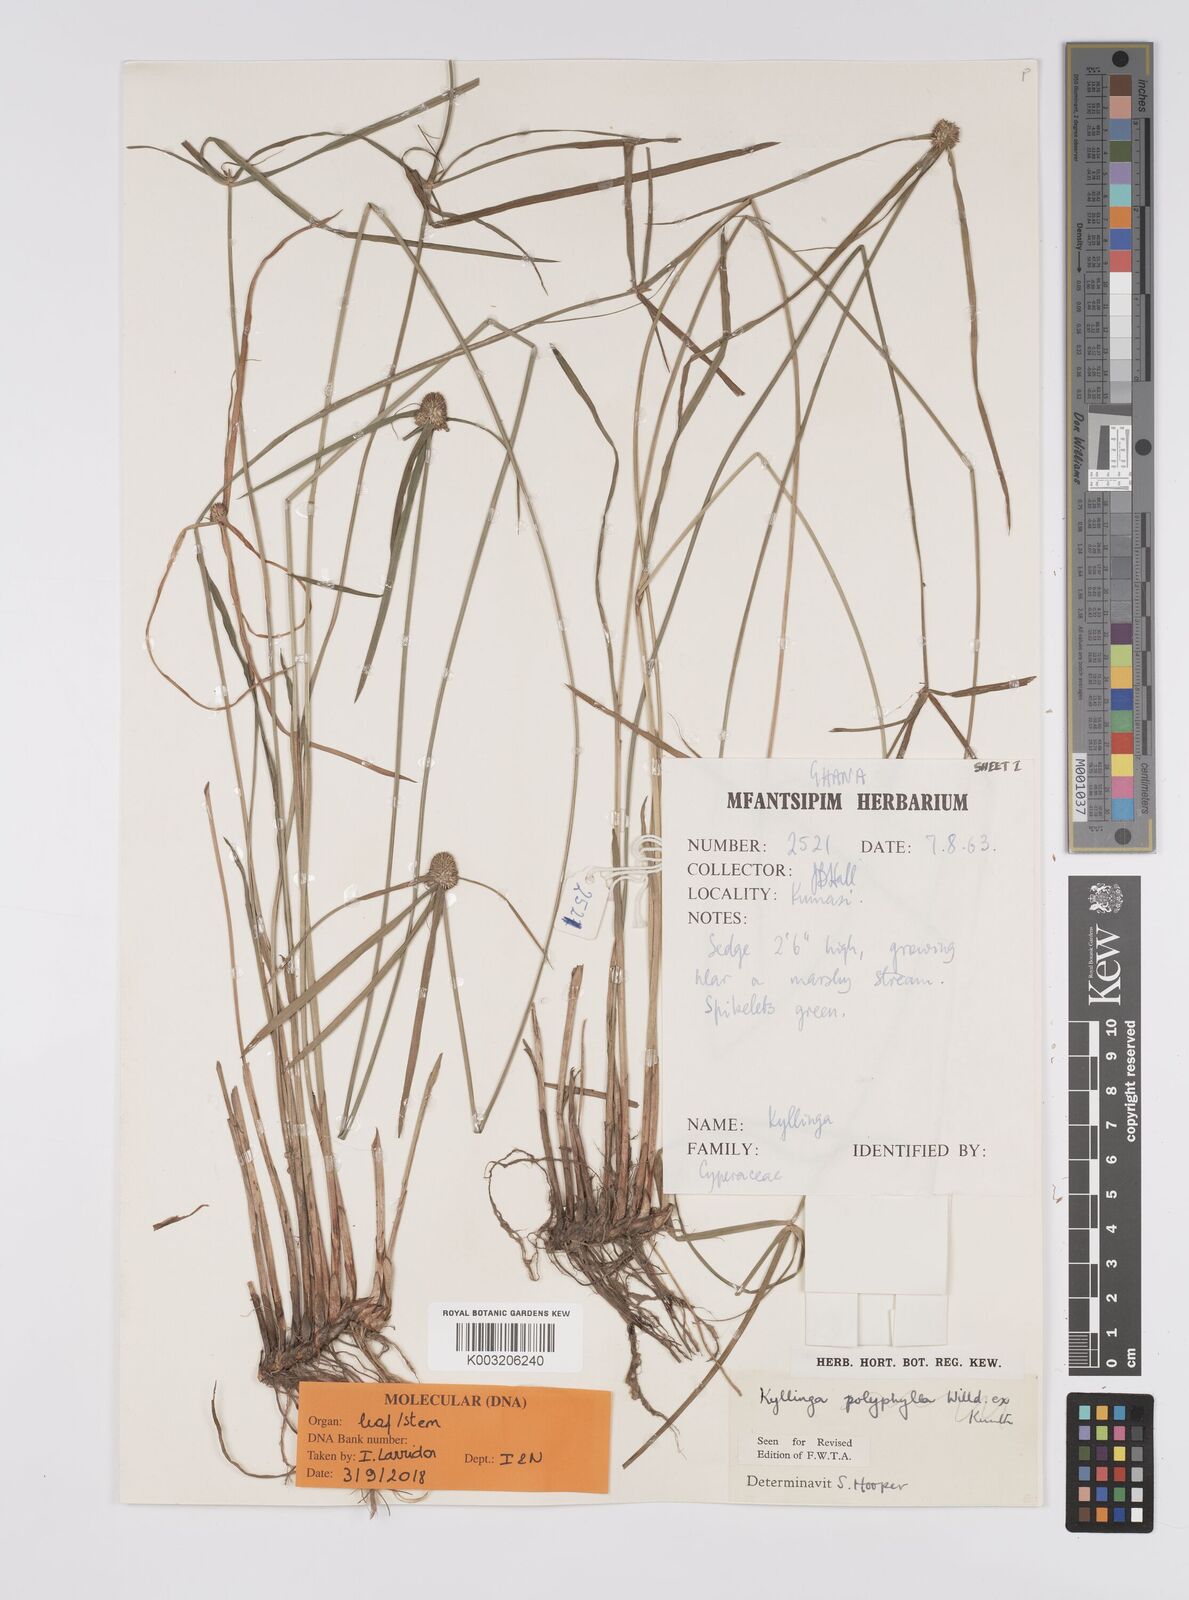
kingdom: Plantae
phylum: Tracheophyta
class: Liliopsida
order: Poales
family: Cyperaceae
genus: Cyperus
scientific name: Cyperus
